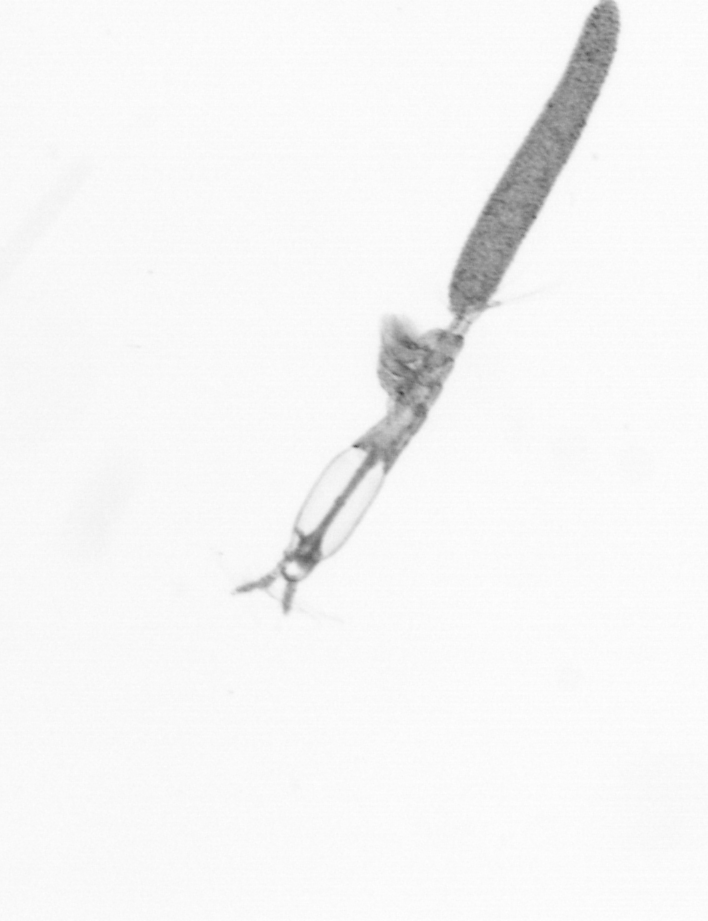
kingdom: Animalia
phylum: Arthropoda
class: Copepoda
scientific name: Copepoda
